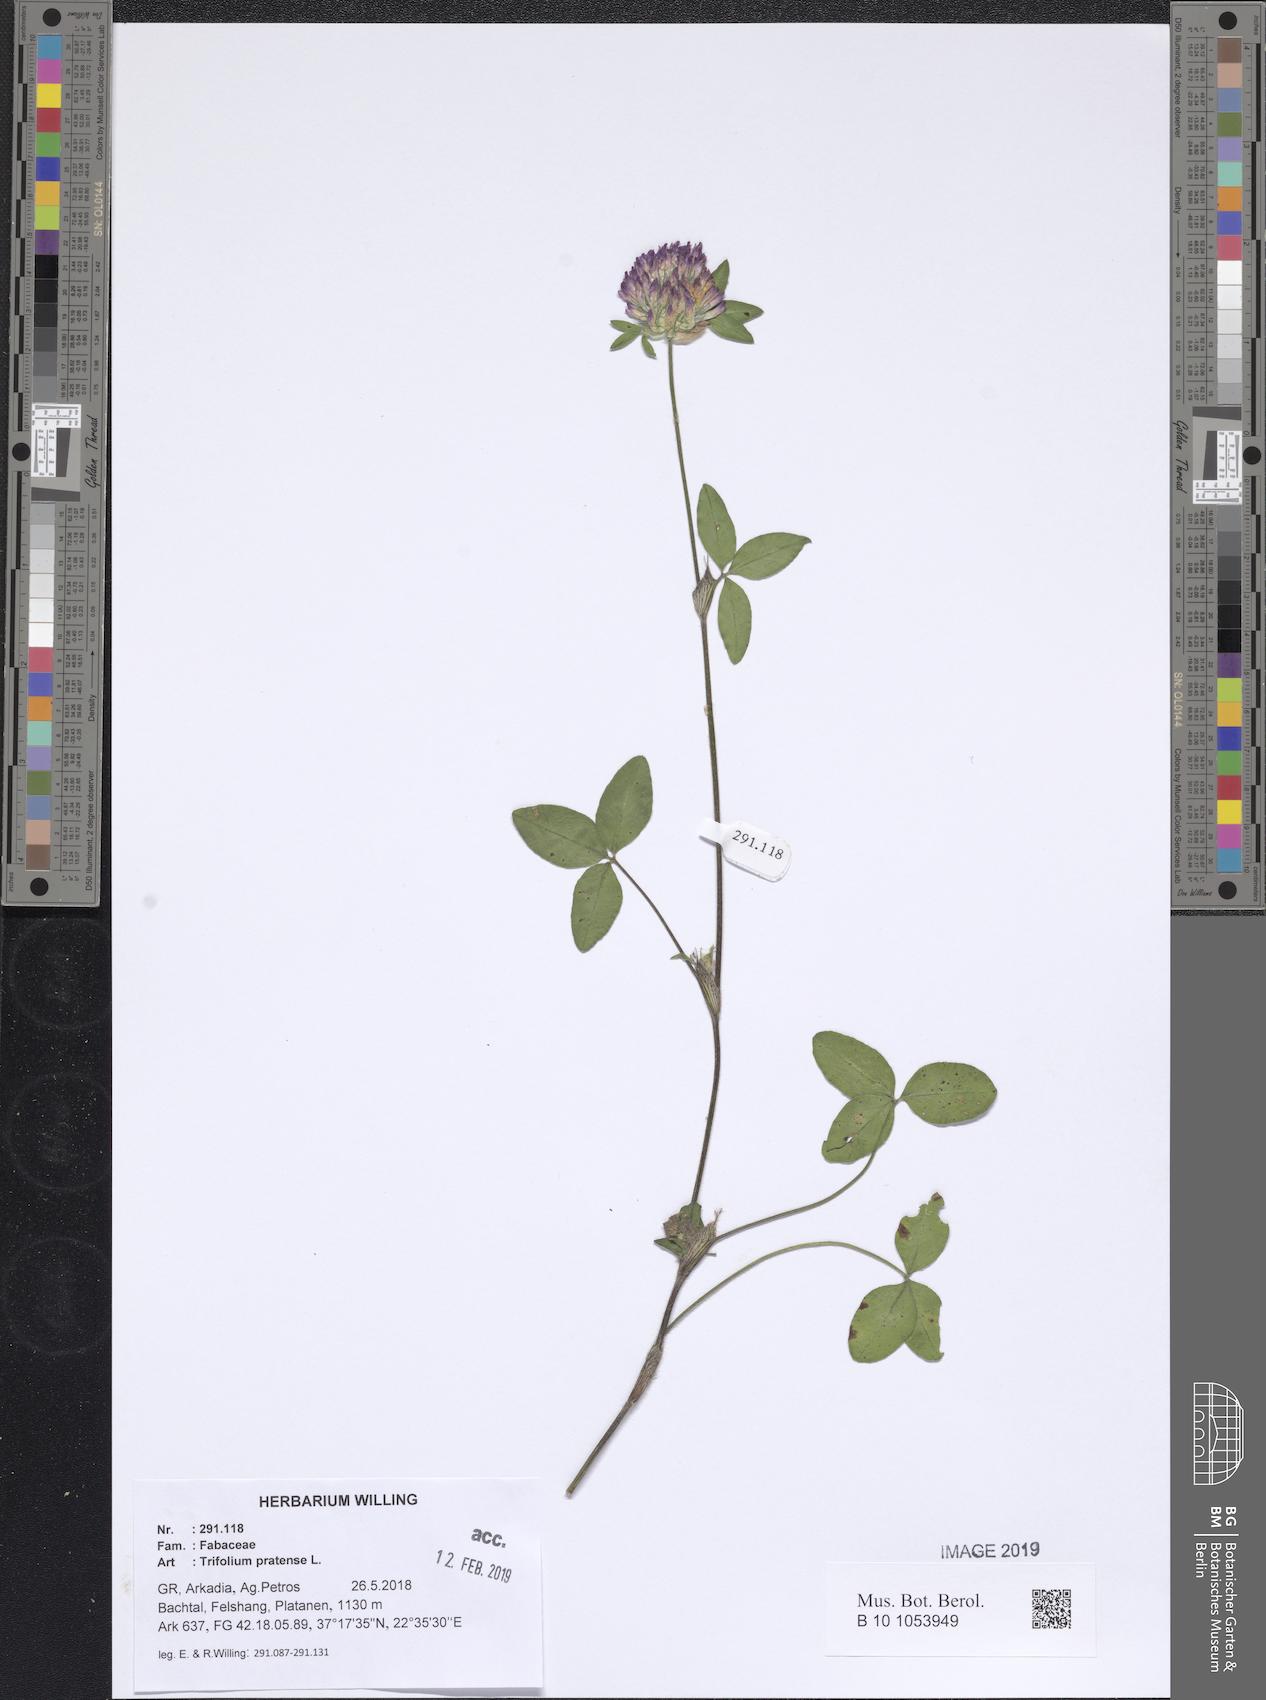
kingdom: Plantae
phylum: Tracheophyta
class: Magnoliopsida
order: Fabales
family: Fabaceae
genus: Trifolium
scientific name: Trifolium pratense
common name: Red clover
